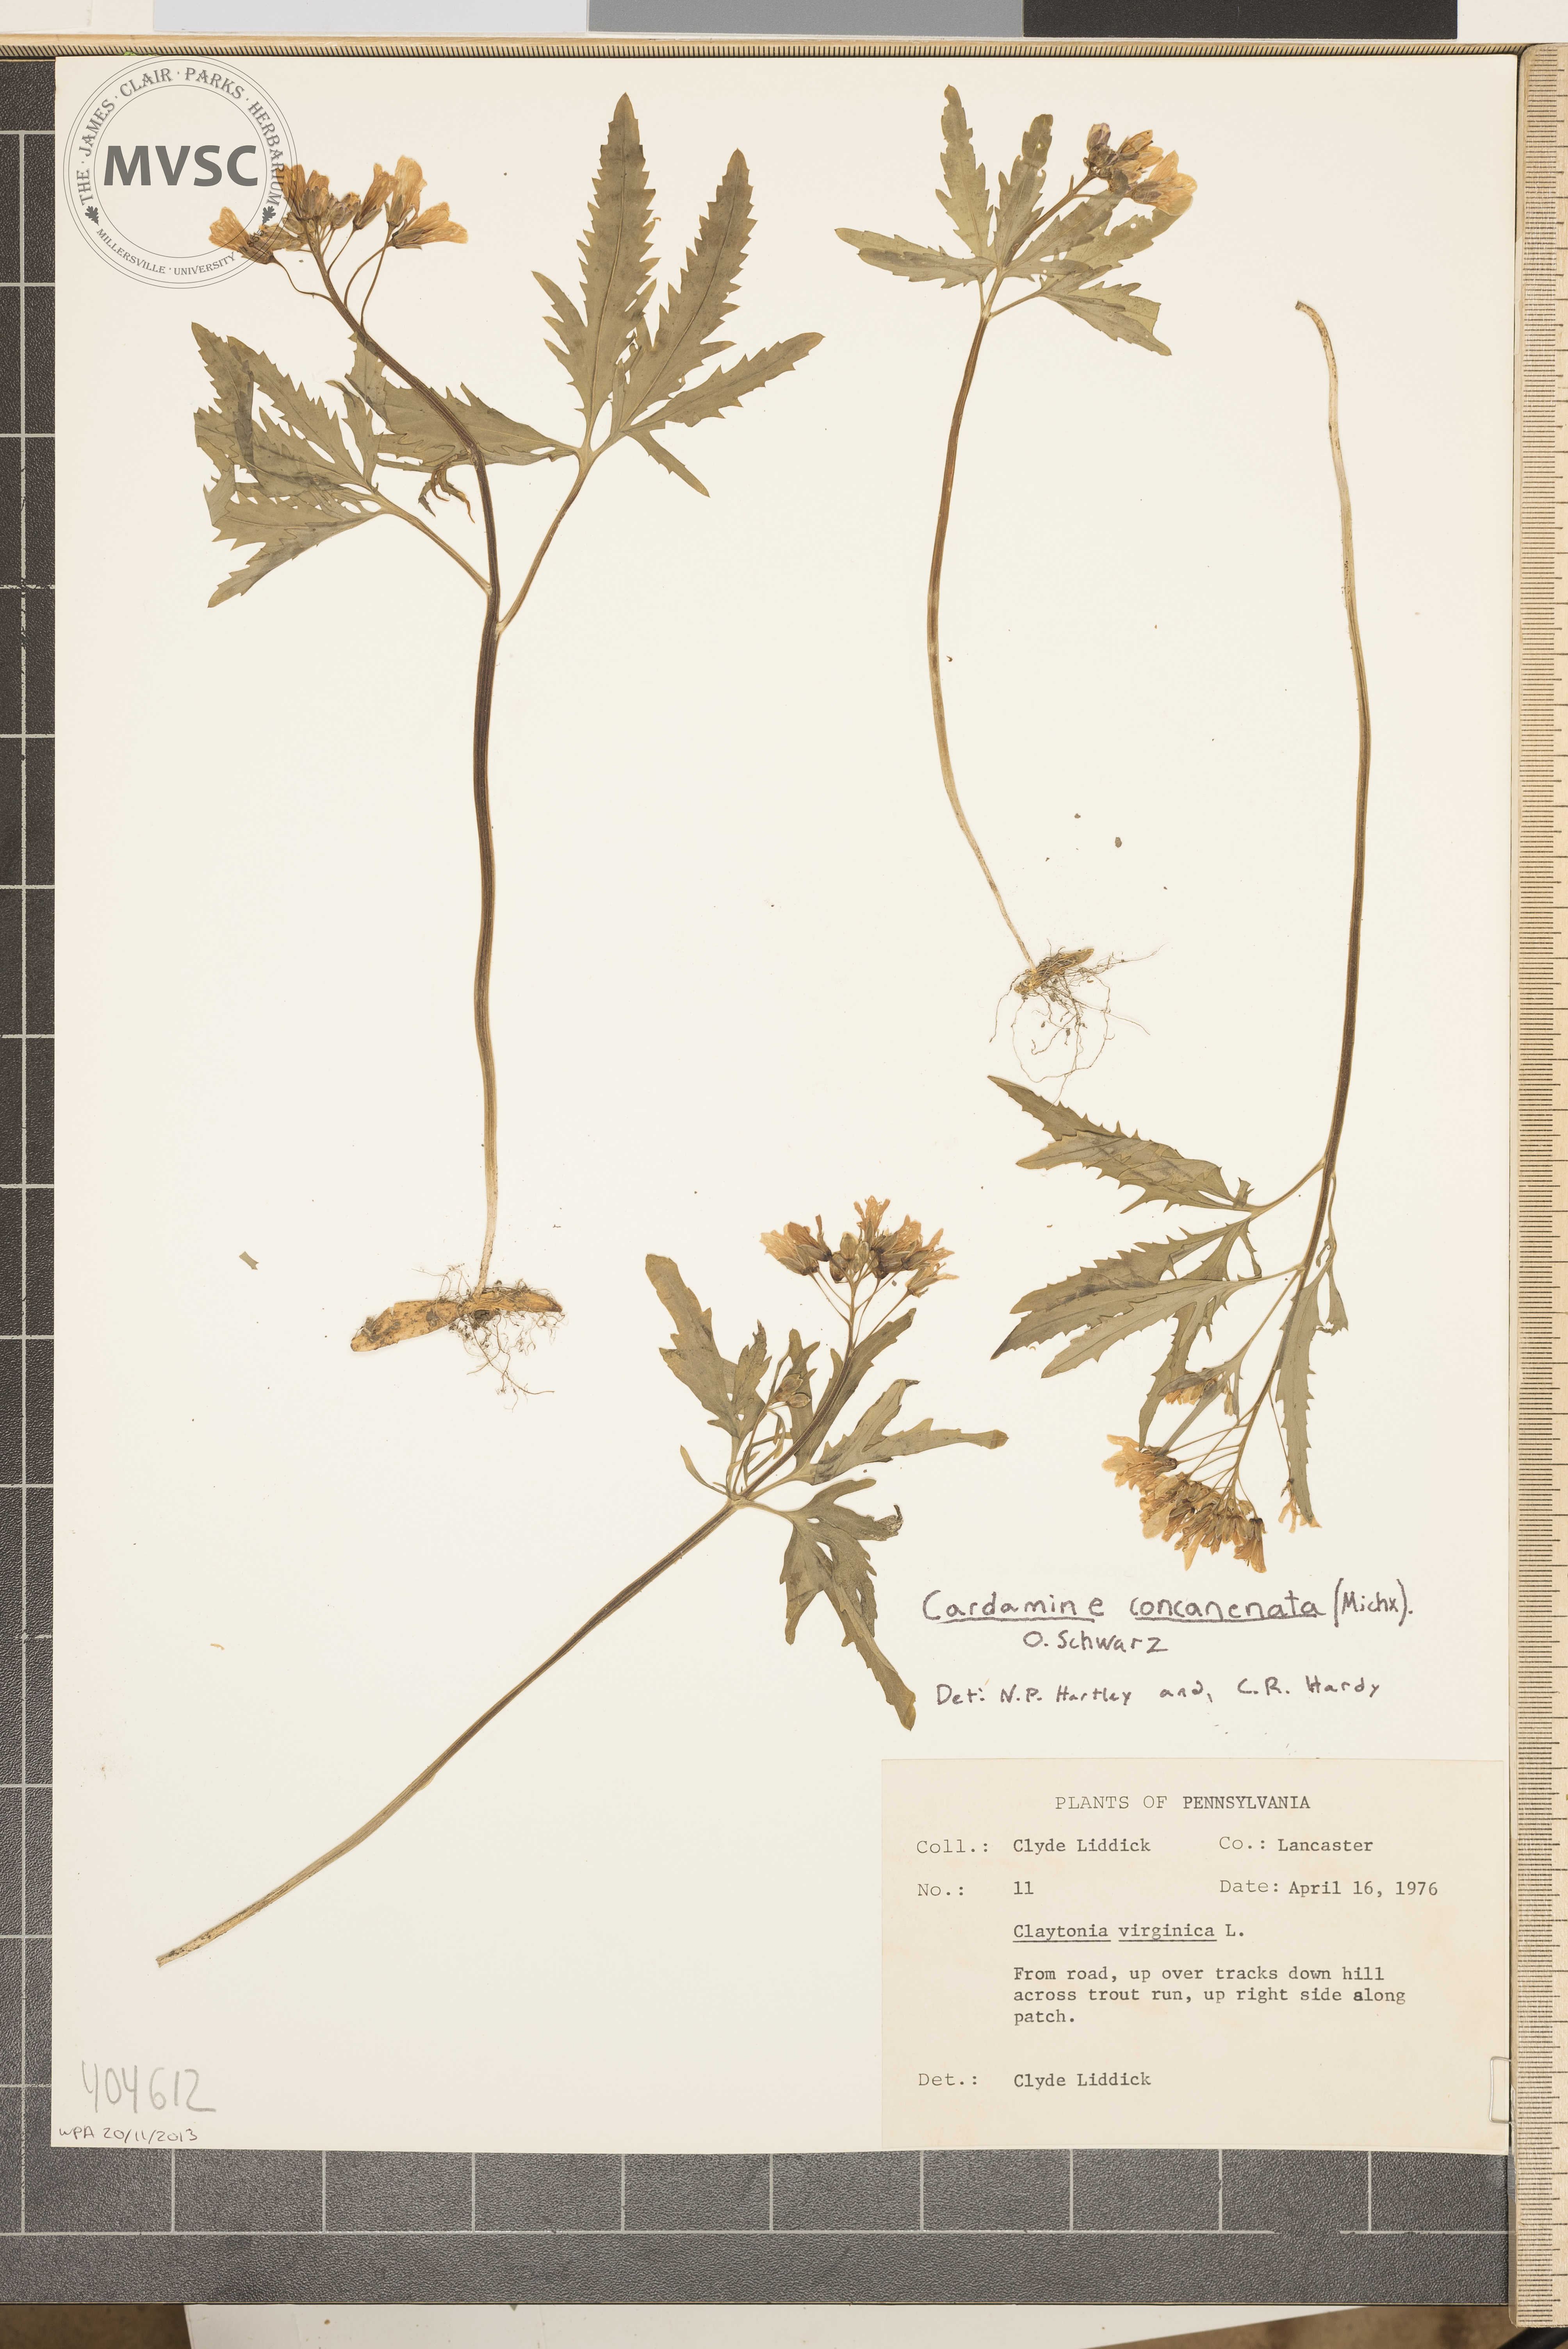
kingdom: Plantae
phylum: Tracheophyta
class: Magnoliopsida
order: Brassicales
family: Brassicaceae
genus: Cardamine
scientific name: Cardamine concatenata
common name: Cut-leaf toothcup
